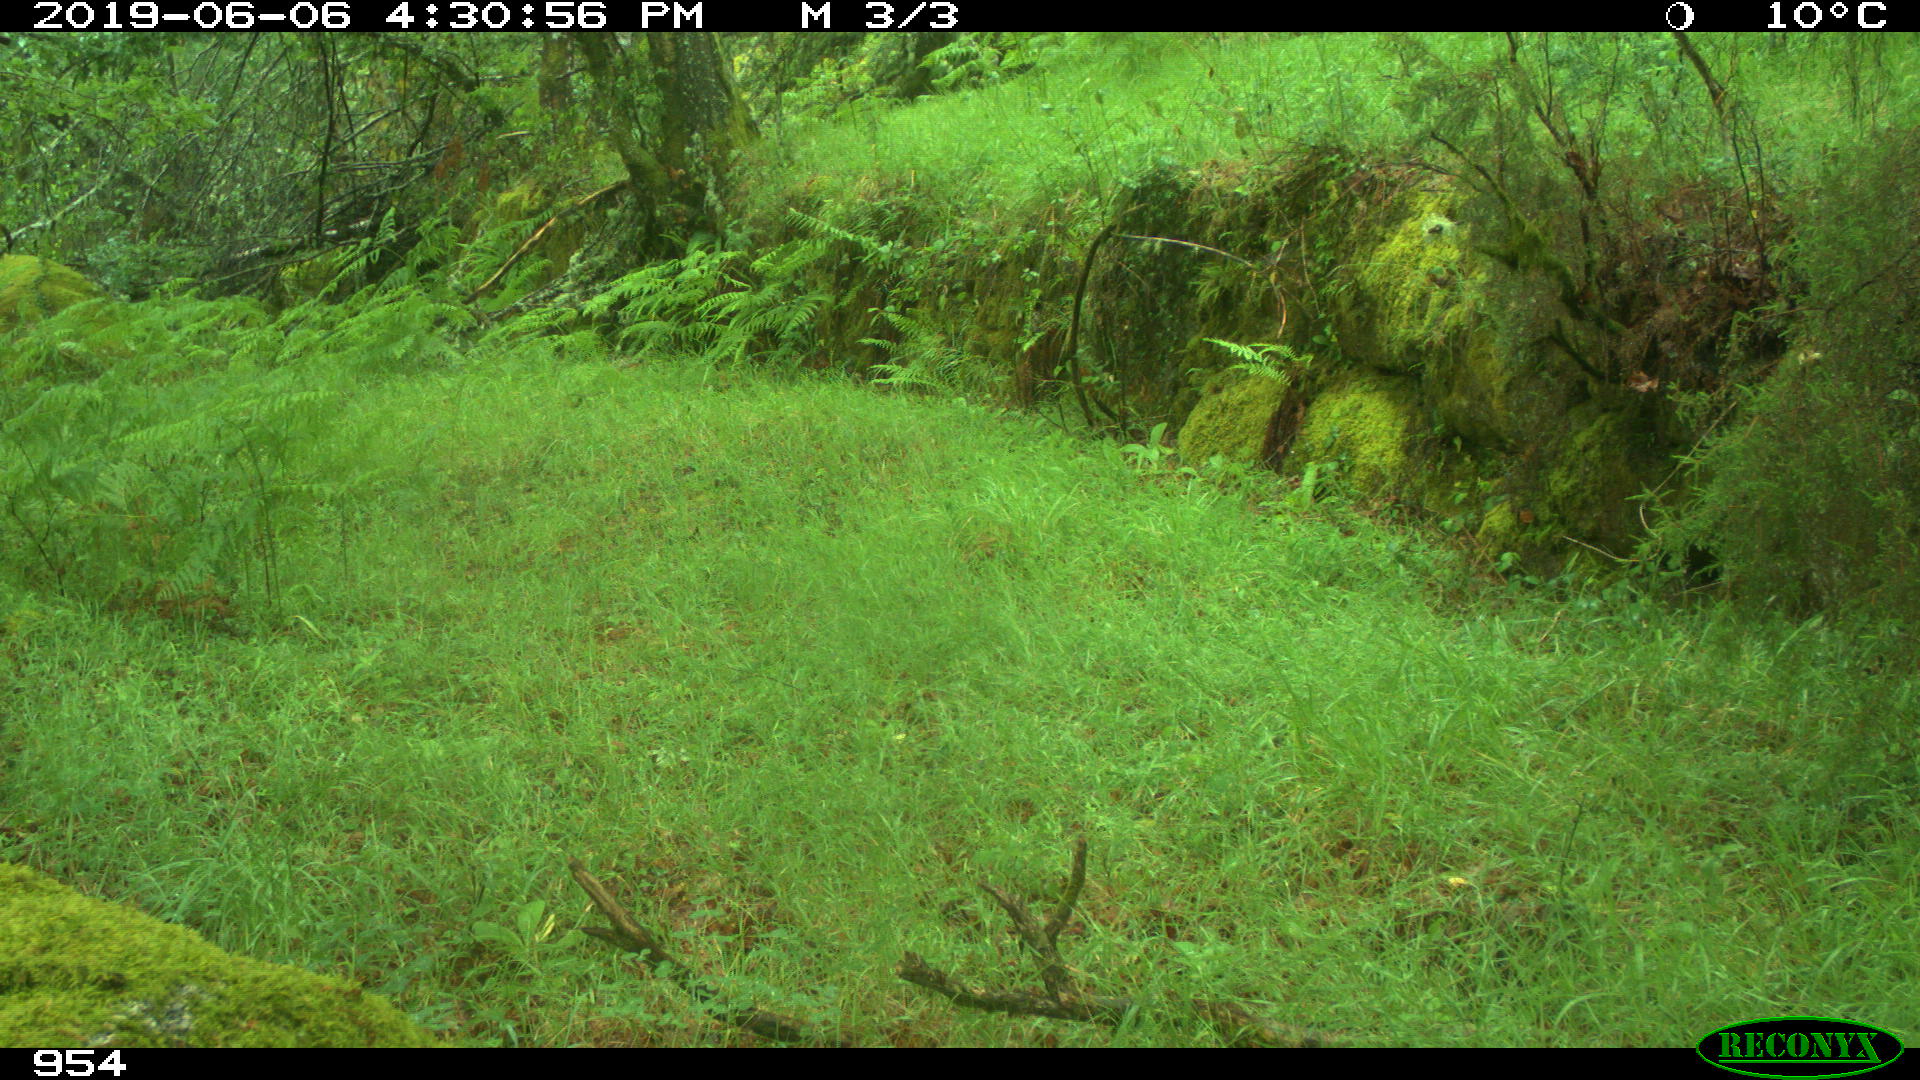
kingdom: Animalia
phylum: Chordata
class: Mammalia
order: Artiodactyla
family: Suidae
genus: Sus
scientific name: Sus scrofa
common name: Wild boar
